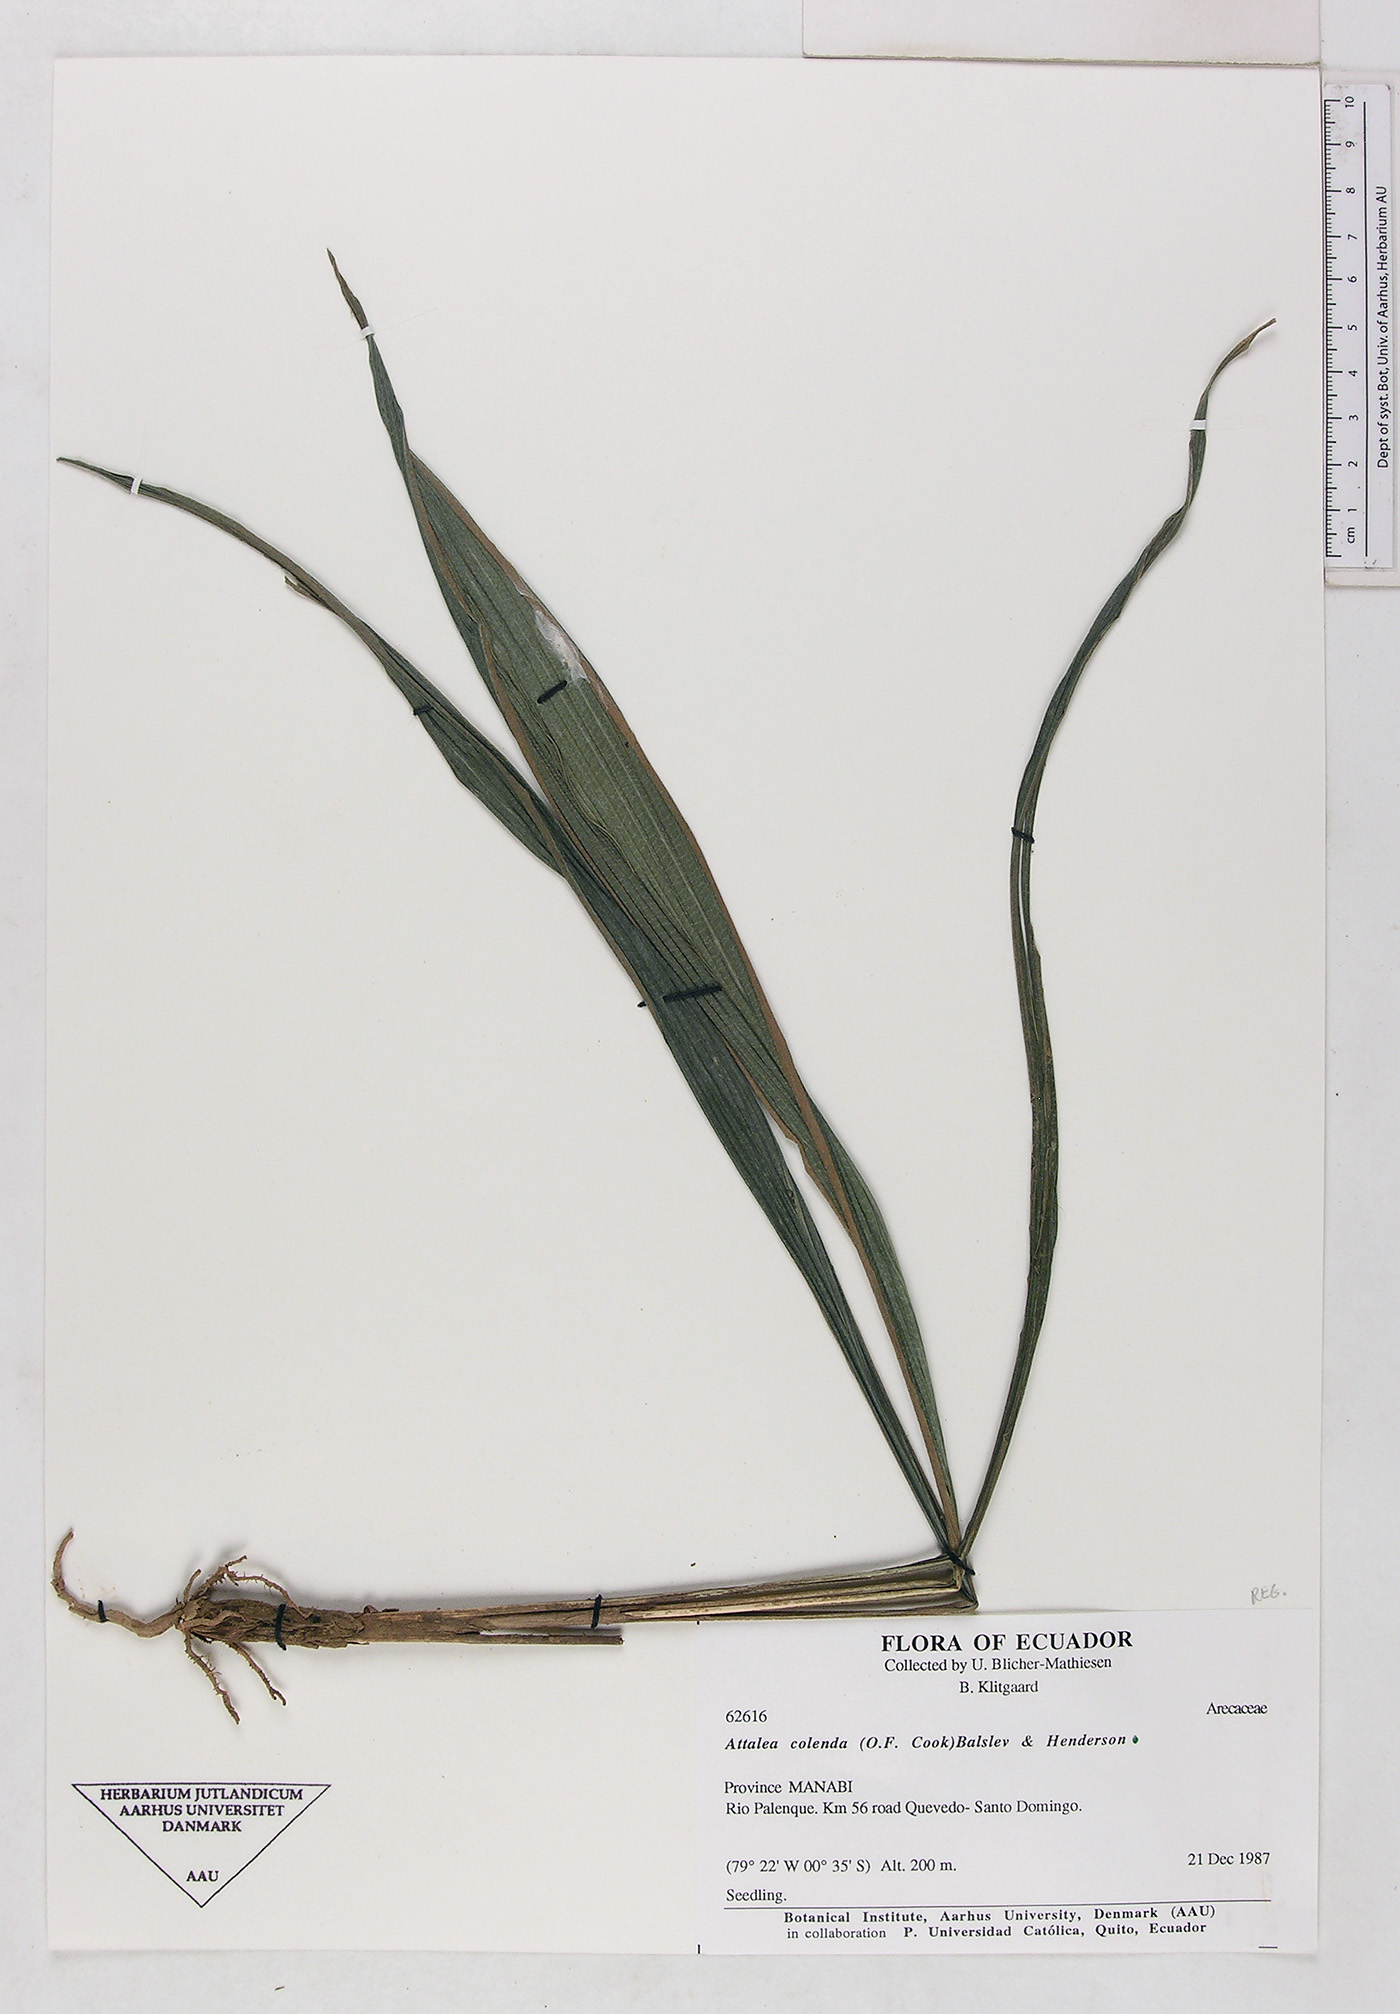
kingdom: Plantae
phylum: Tracheophyta
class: Liliopsida
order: Arecales
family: Arecaceae
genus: Attalea
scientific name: Attalea colenda
